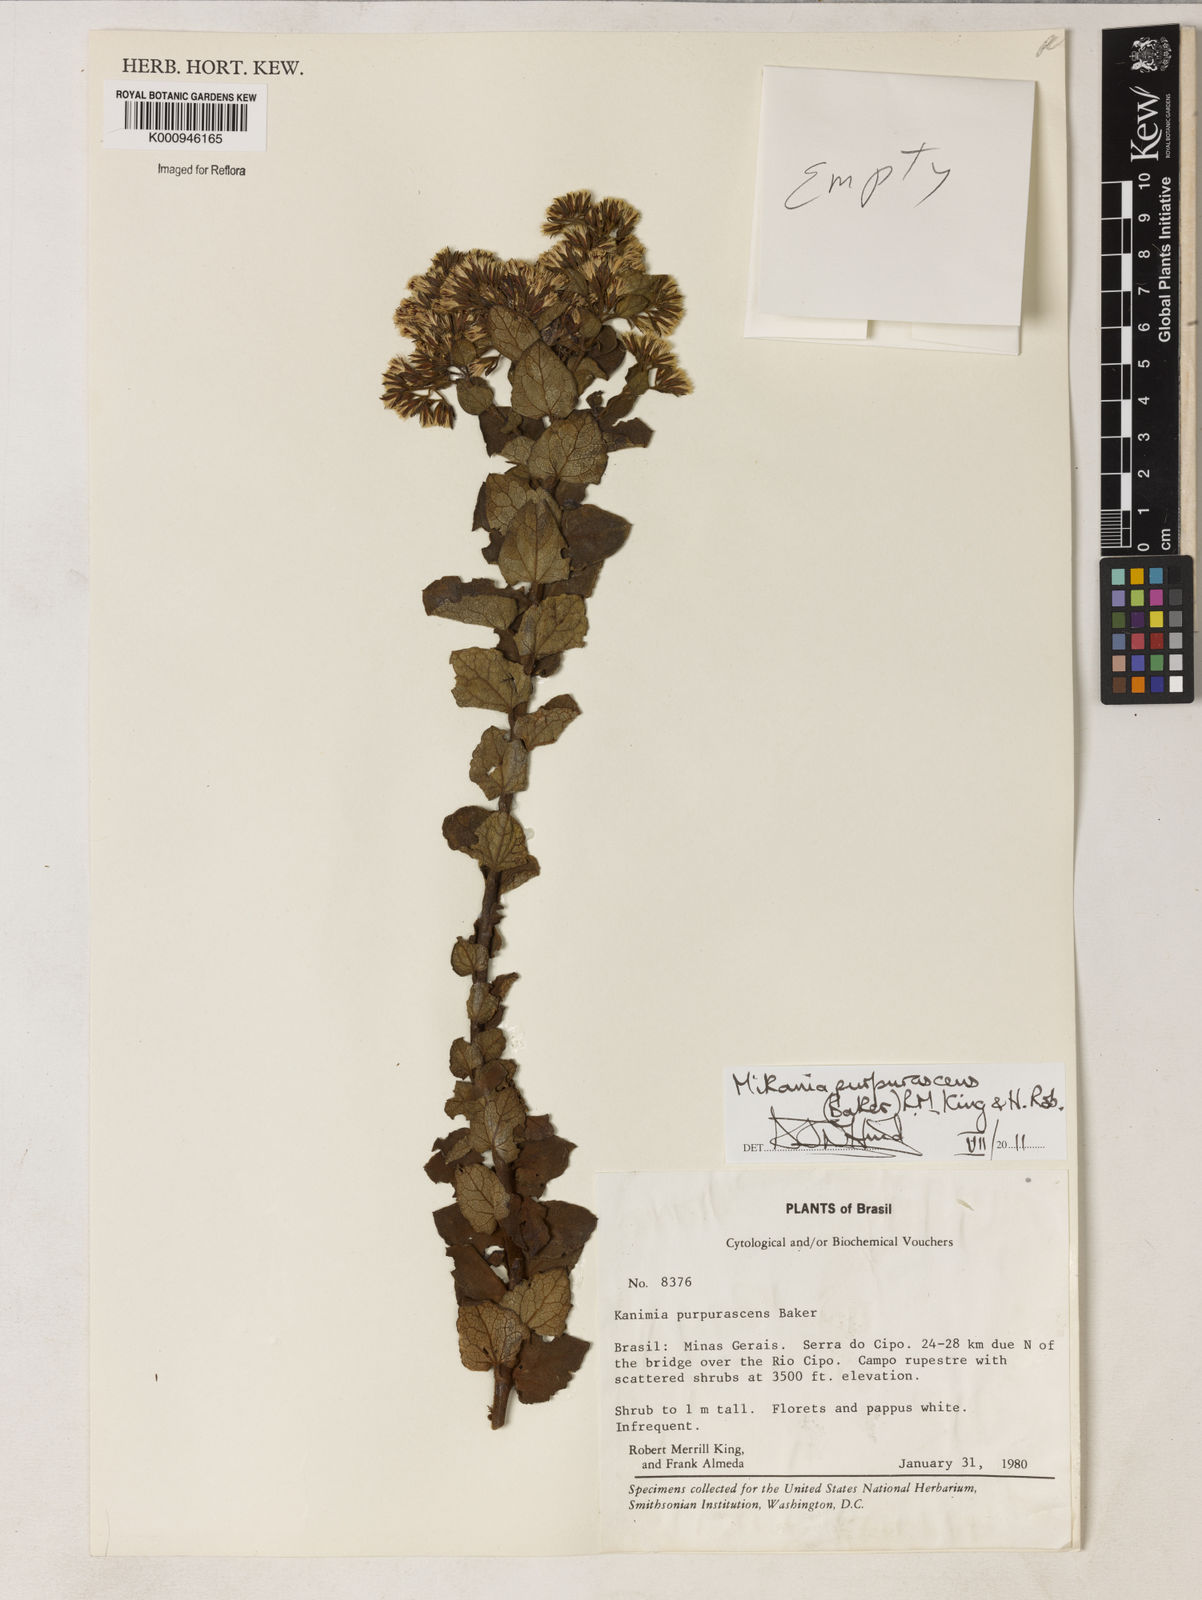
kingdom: Plantae
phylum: Tracheophyta
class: Magnoliopsida
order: Asterales
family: Asteraceae
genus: Mikania
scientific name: Mikania purpurascens
